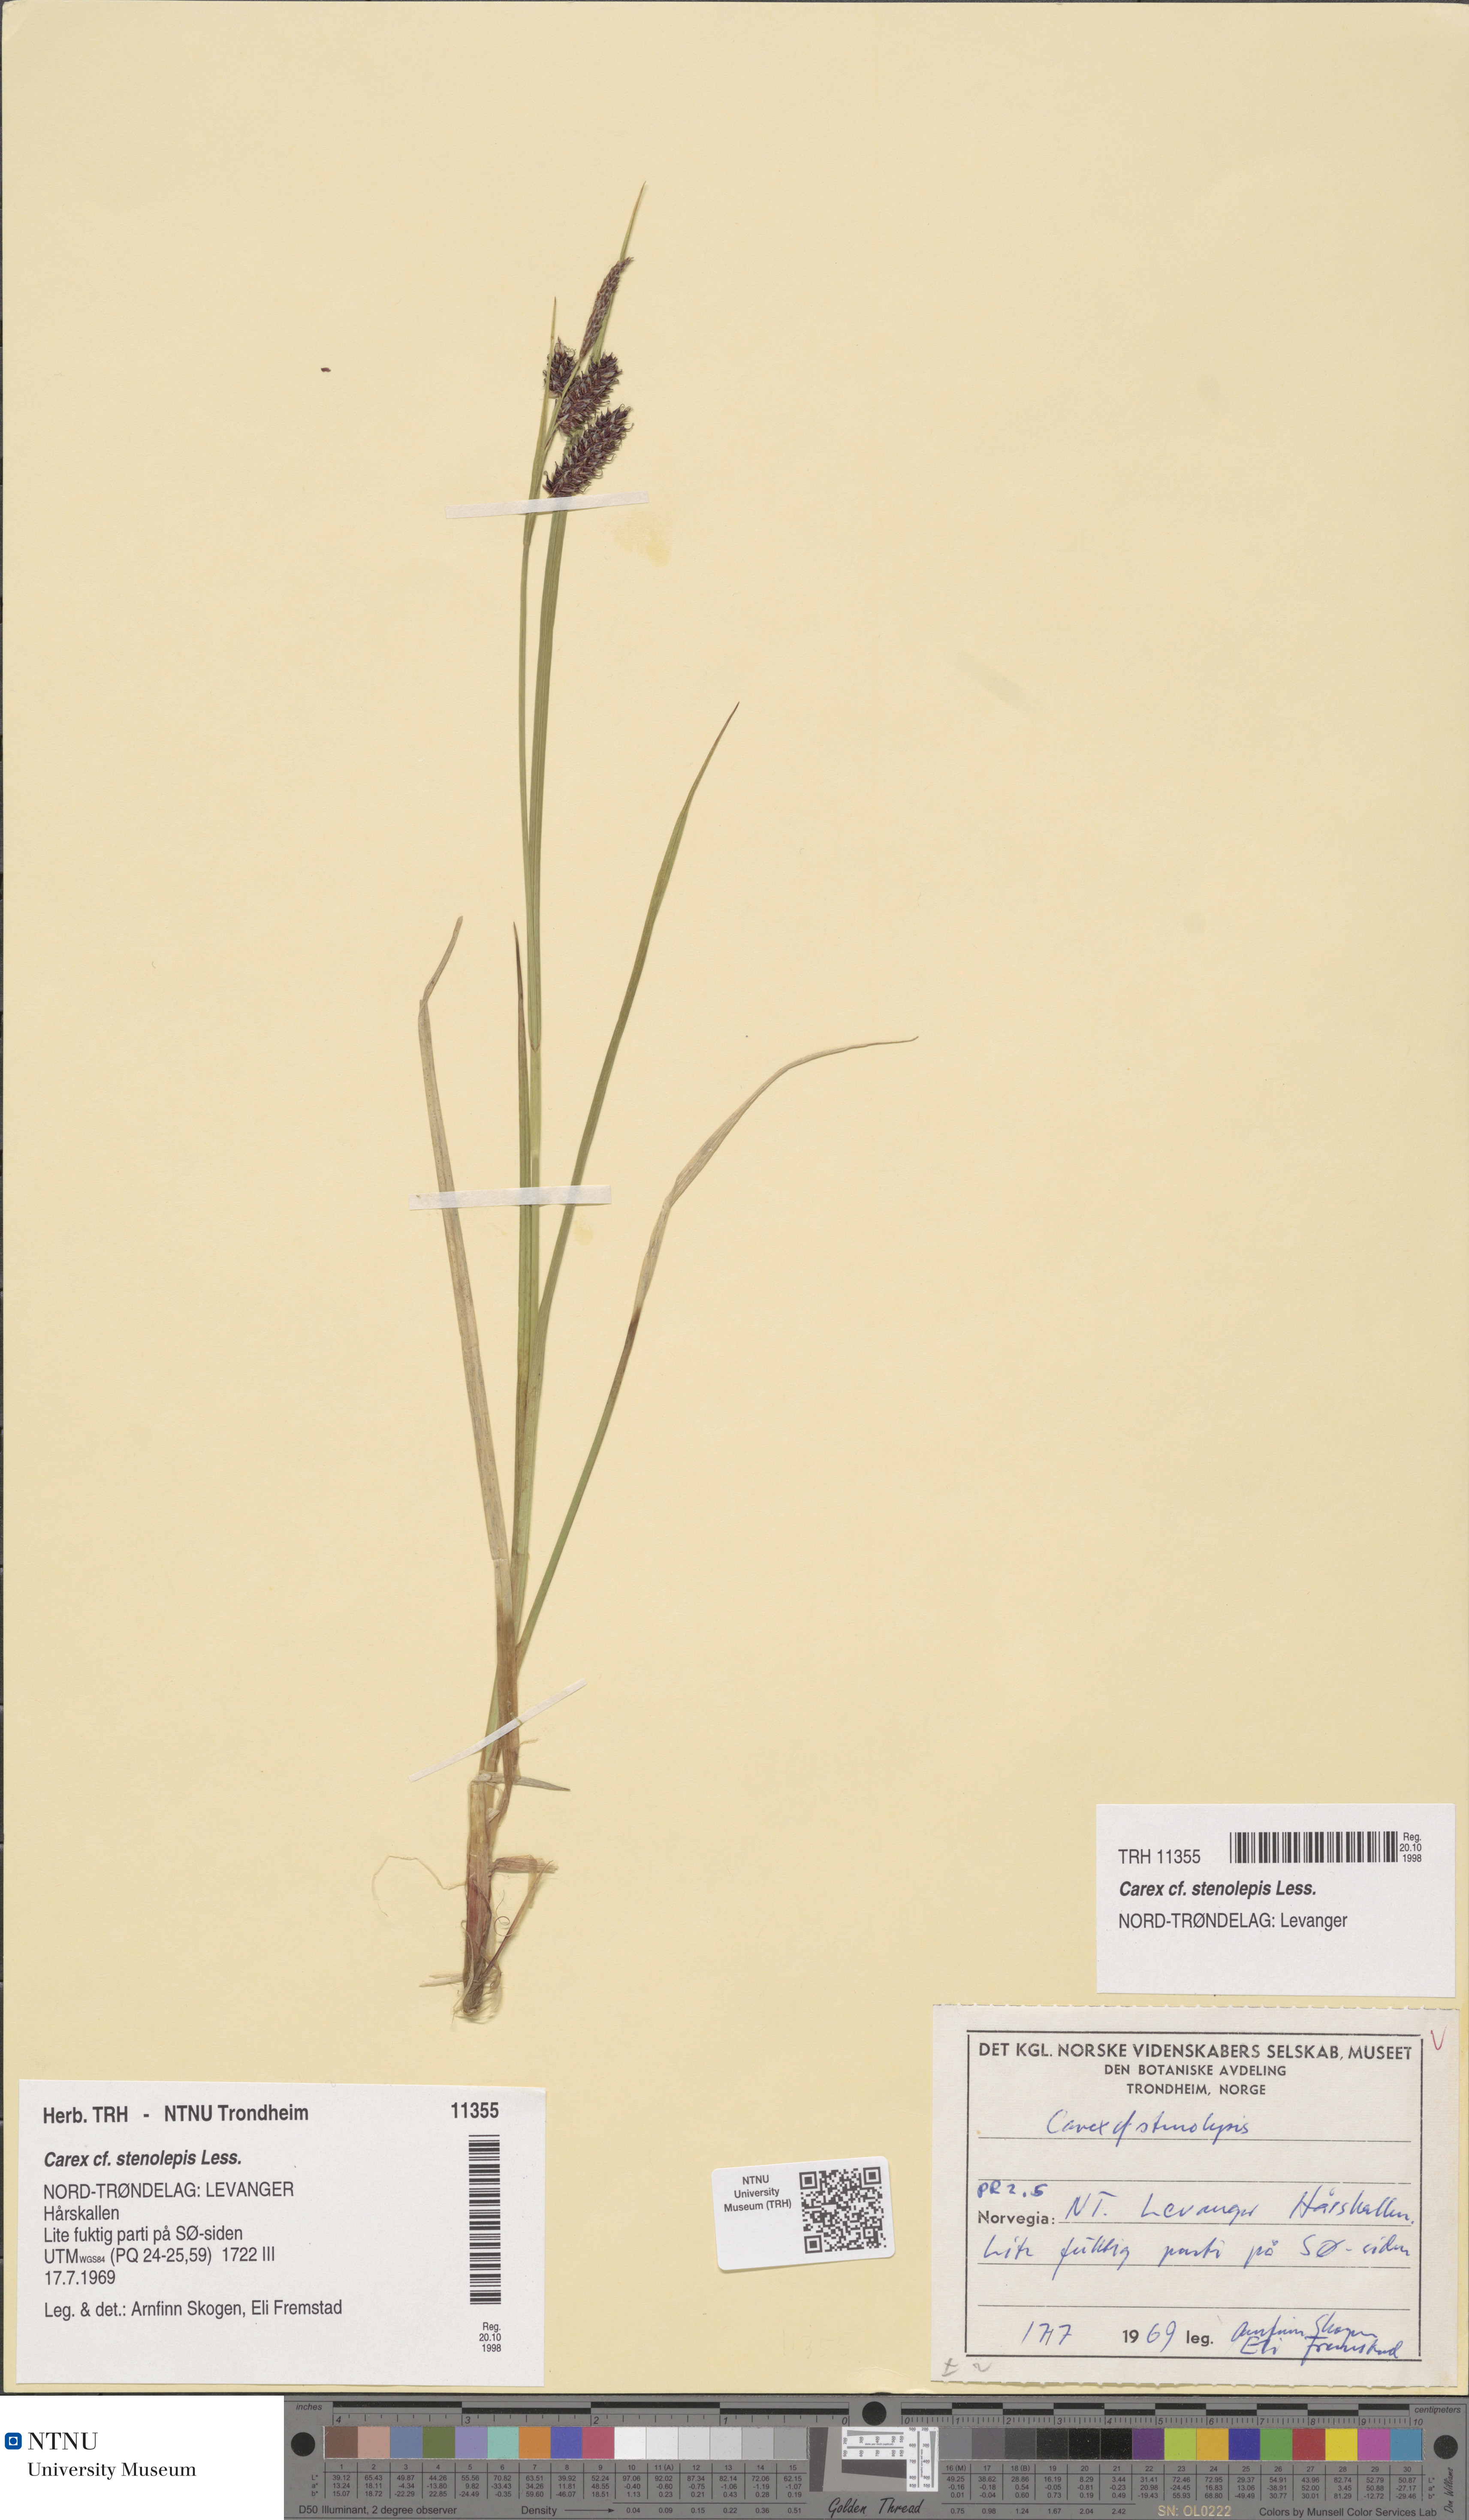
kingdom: Plantae
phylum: Tracheophyta
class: Liliopsida
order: Poales
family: Cyperaceae
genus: Carex
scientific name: Carex grahamii
